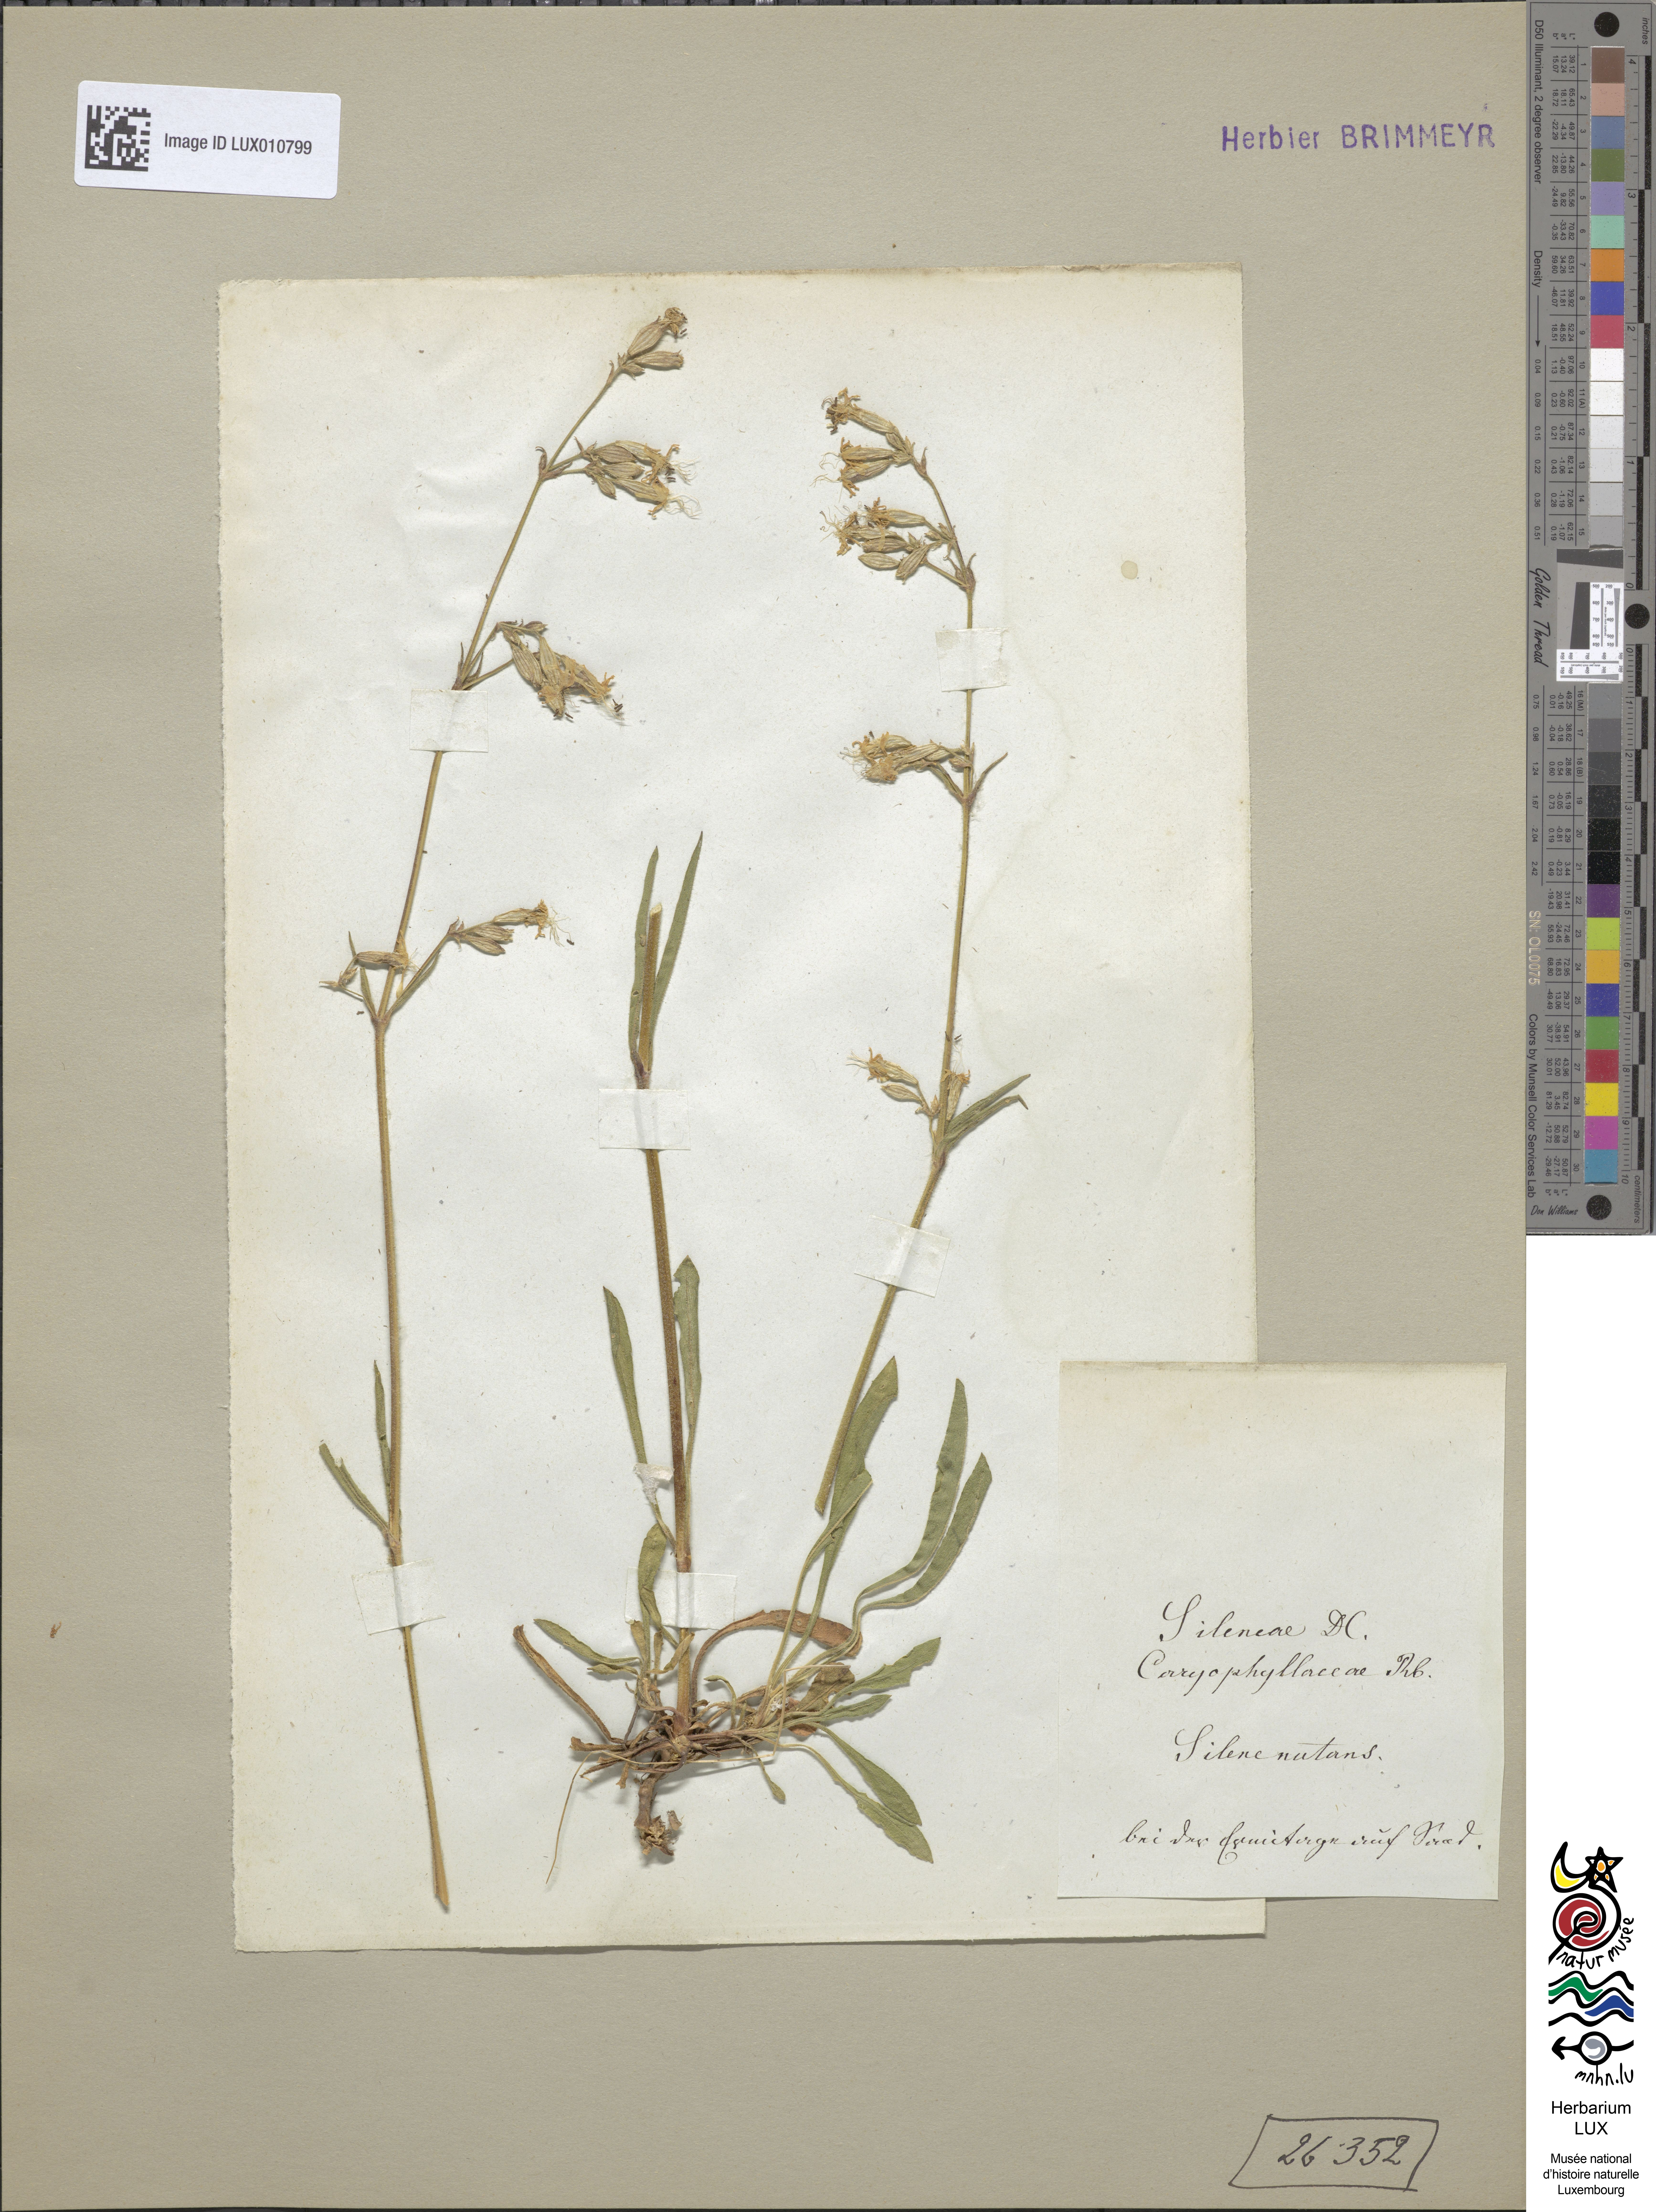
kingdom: Plantae
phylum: Tracheophyta
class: Magnoliopsida
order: Caryophyllales
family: Caryophyllaceae
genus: Silene
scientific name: Silene nutans
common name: Nottingham catchfly
